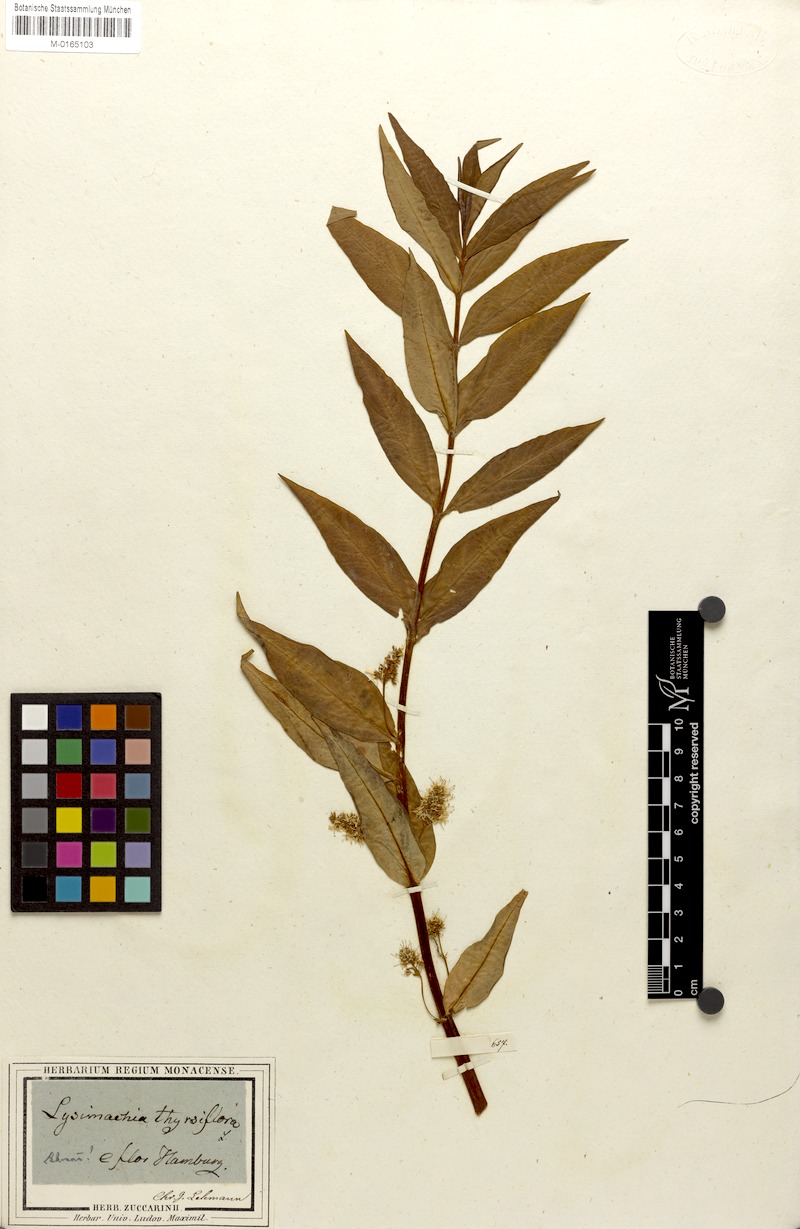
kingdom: Plantae
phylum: Tracheophyta
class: Magnoliopsida
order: Ericales
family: Primulaceae
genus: Lysimachia
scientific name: Lysimachia thyrsiflora
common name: Tufted loosestrife
